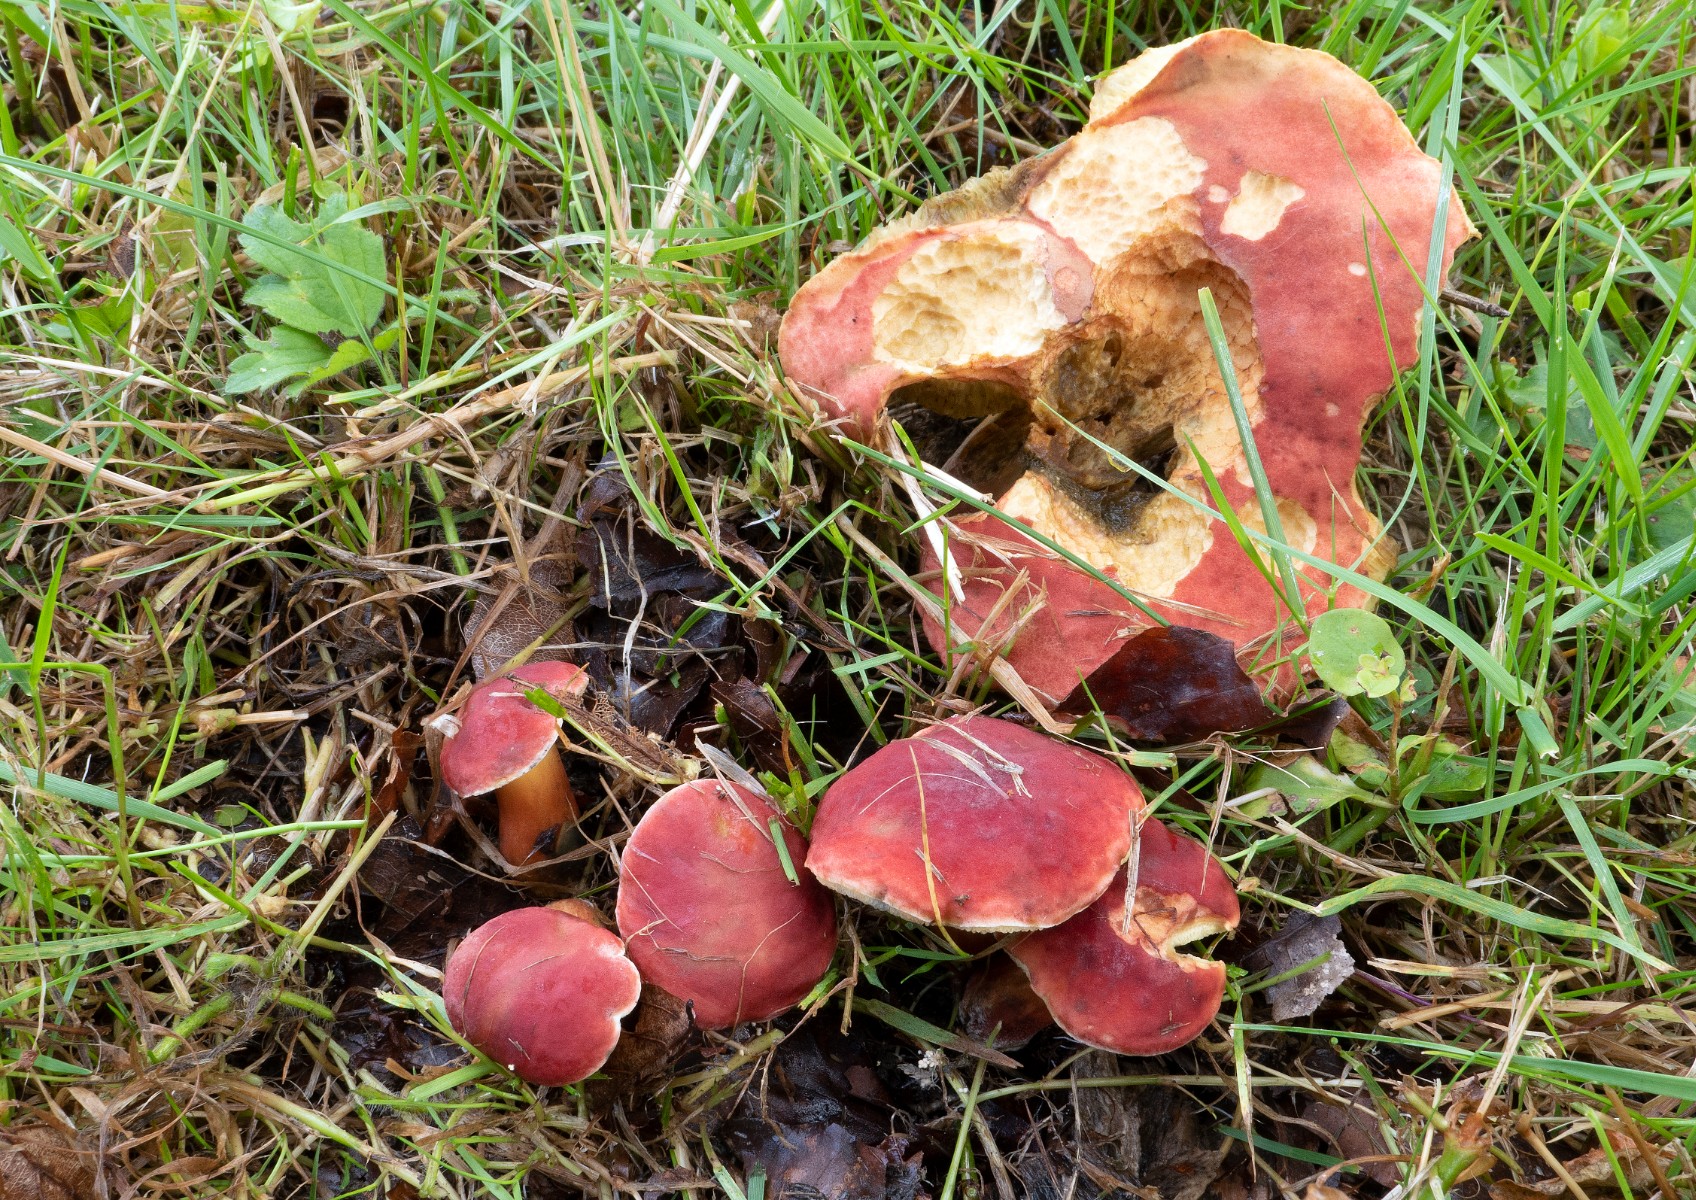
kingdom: Fungi
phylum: Basidiomycota
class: Agaricomycetes
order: Boletales
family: Boletaceae
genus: Hortiboletus
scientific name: Hortiboletus rubellus
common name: blodrød rørhat
